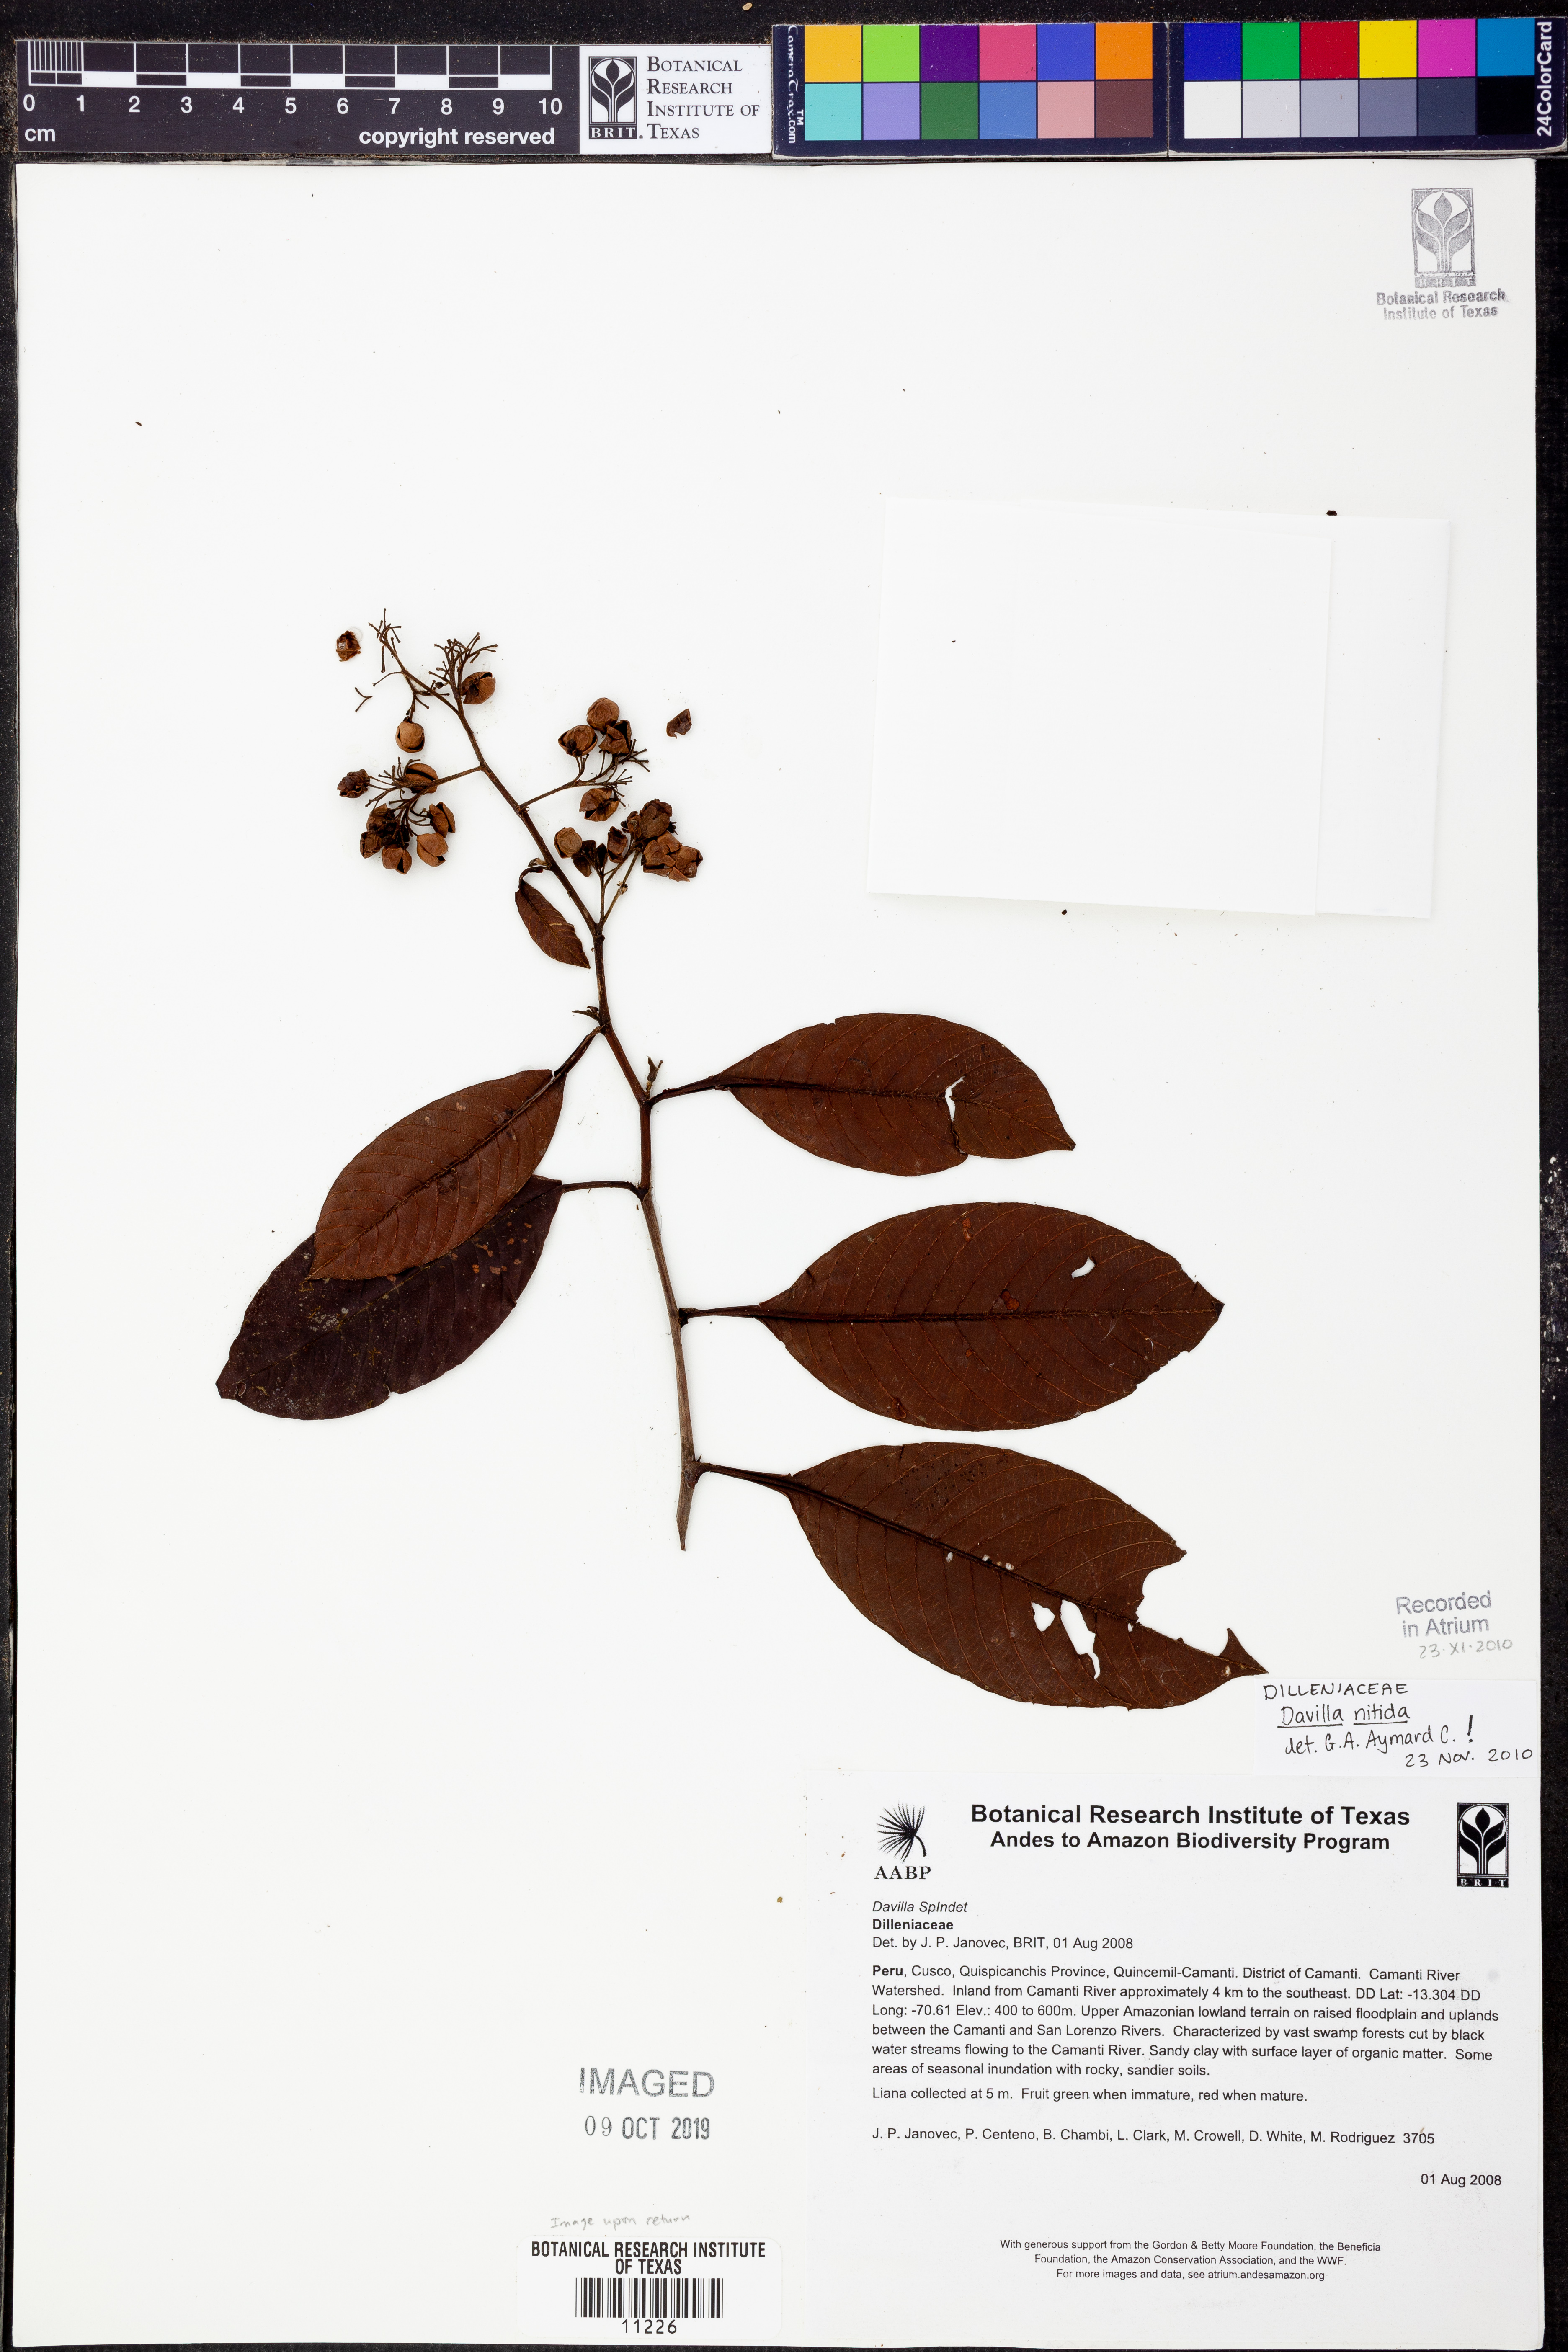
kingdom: Plantae
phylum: Tracheophyta
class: Polypodiopsida
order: Polypodiales
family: Davalliaceae
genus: Davallia
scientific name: Davallia
